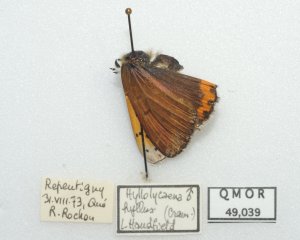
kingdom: Animalia
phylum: Arthropoda
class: Insecta
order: Lepidoptera
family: Sesiidae
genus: Sesia
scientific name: Sesia Lycaena hyllus
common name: Bronze Copper
